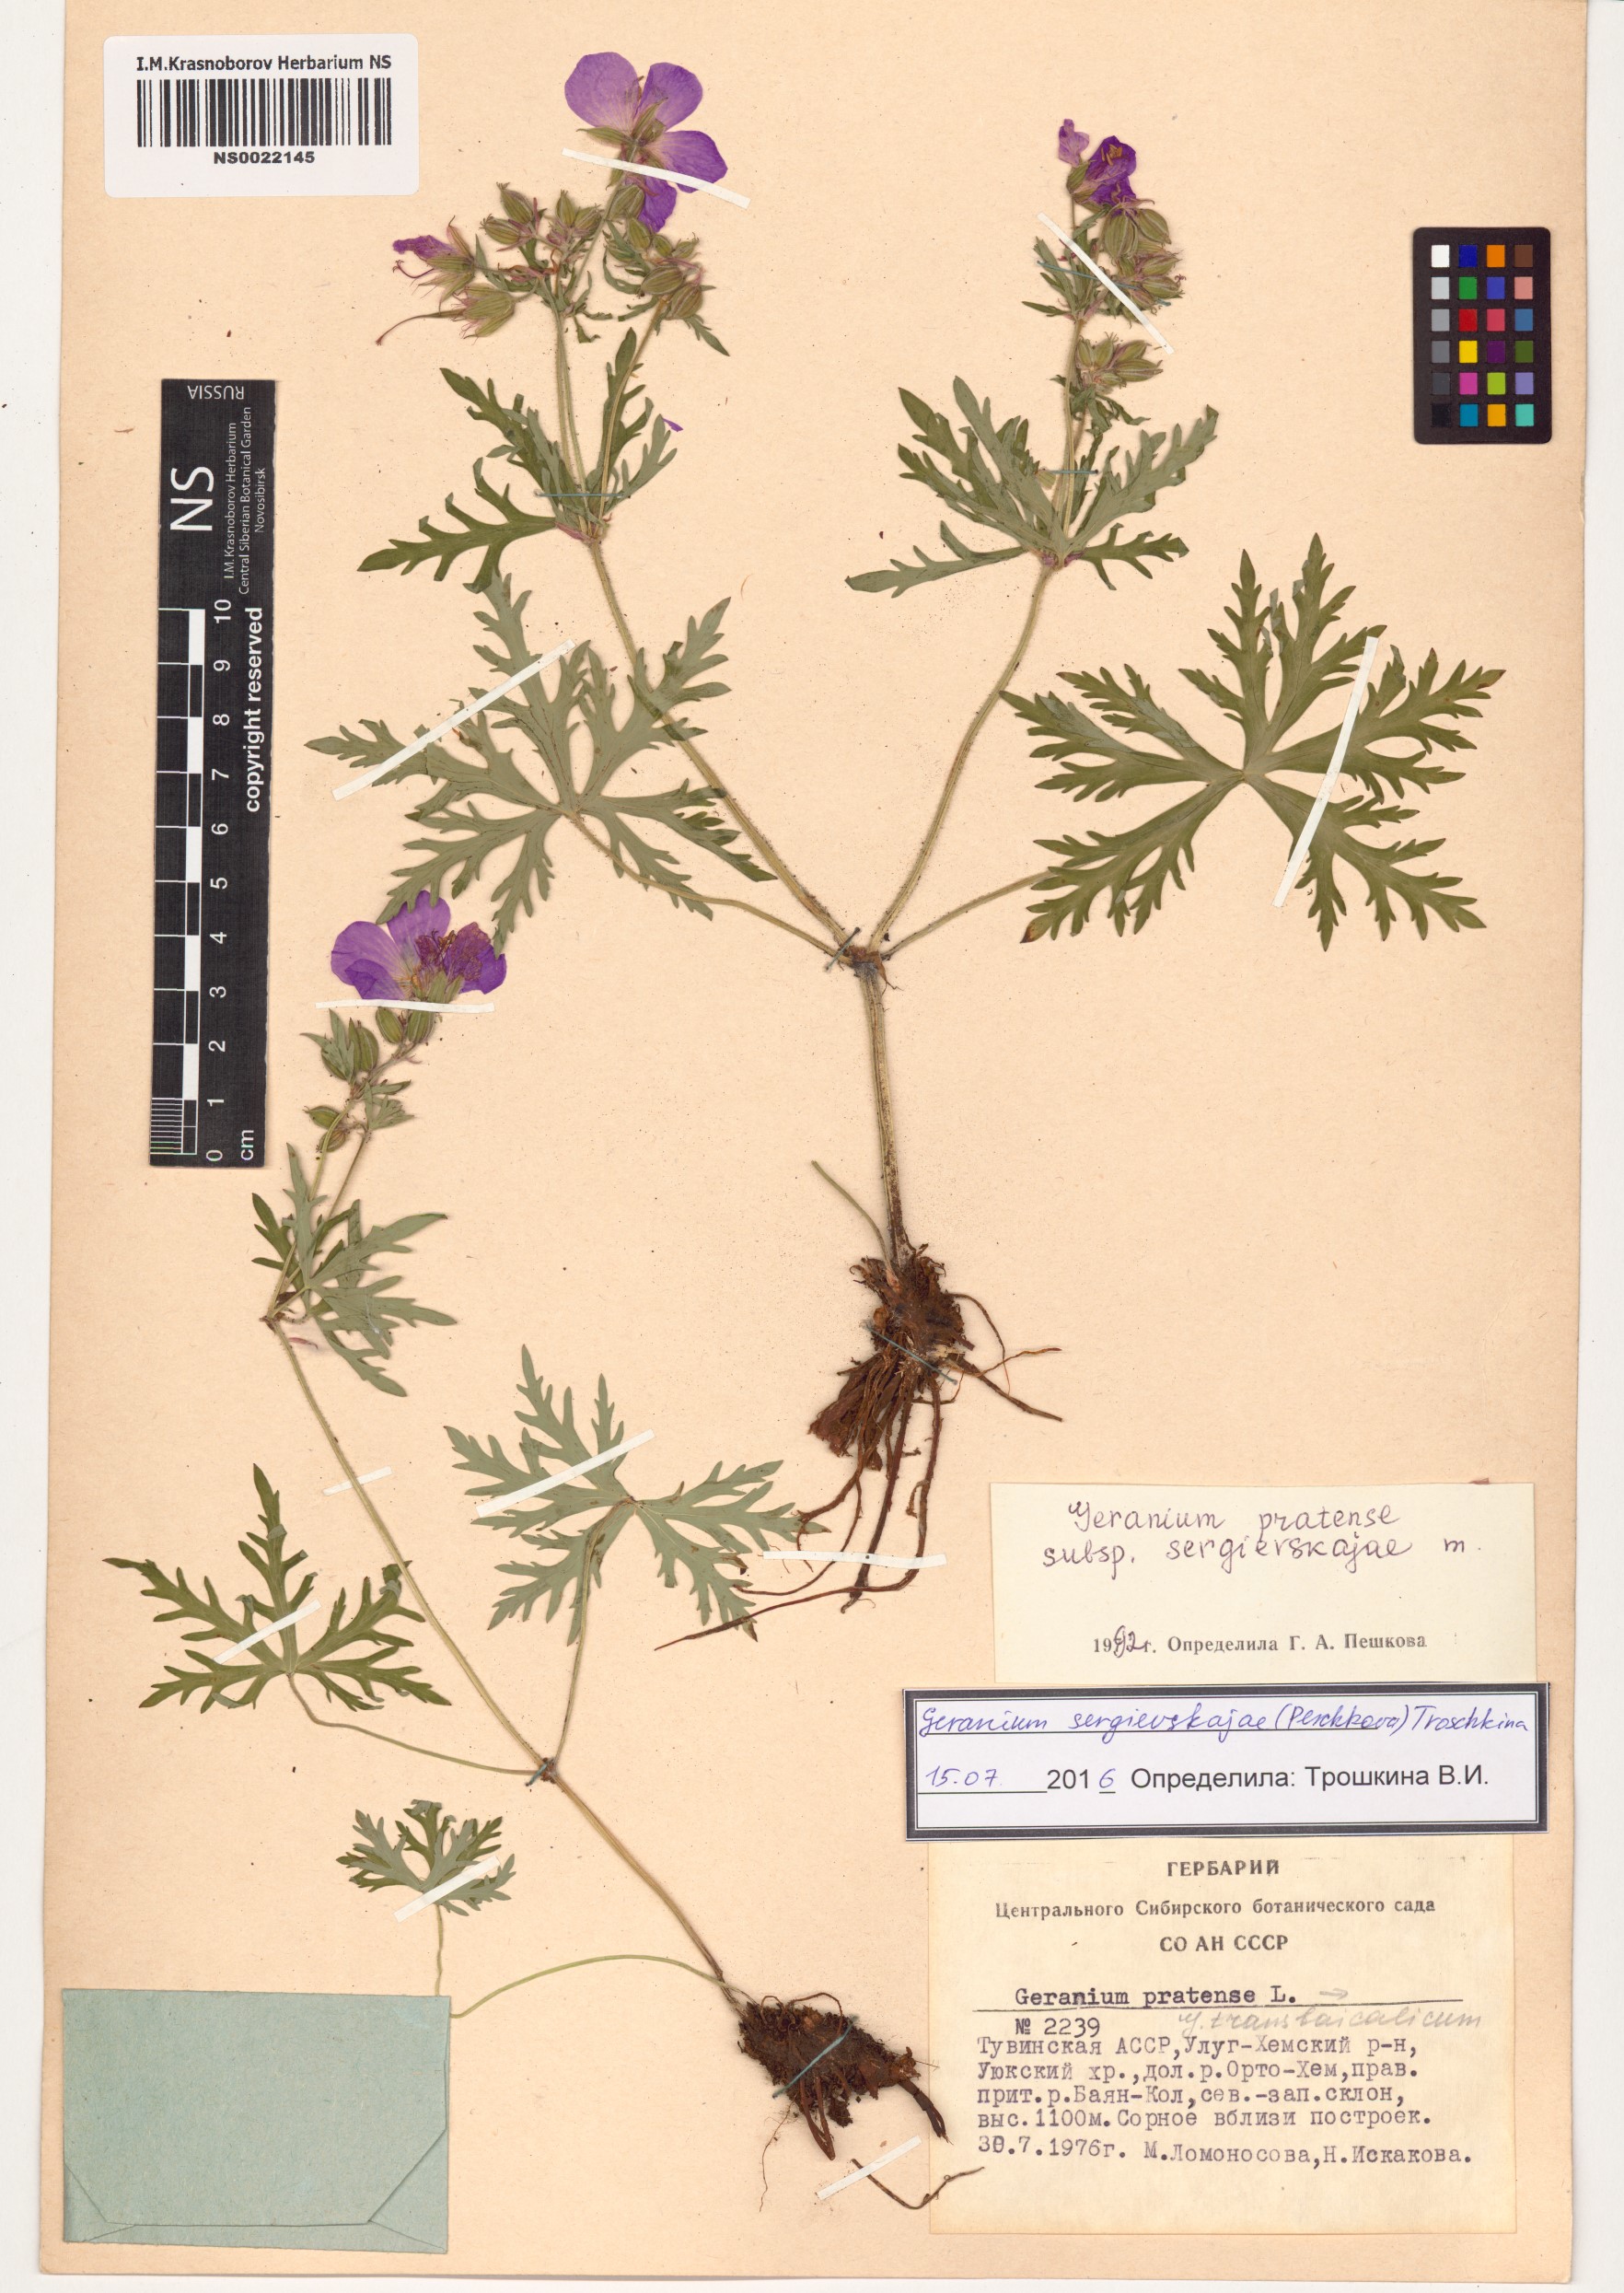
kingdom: Plantae
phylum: Tracheophyta
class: Magnoliopsida
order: Geraniales
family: Geraniaceae
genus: Geranium
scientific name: Geranium pratense
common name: Meadow crane's-bill
